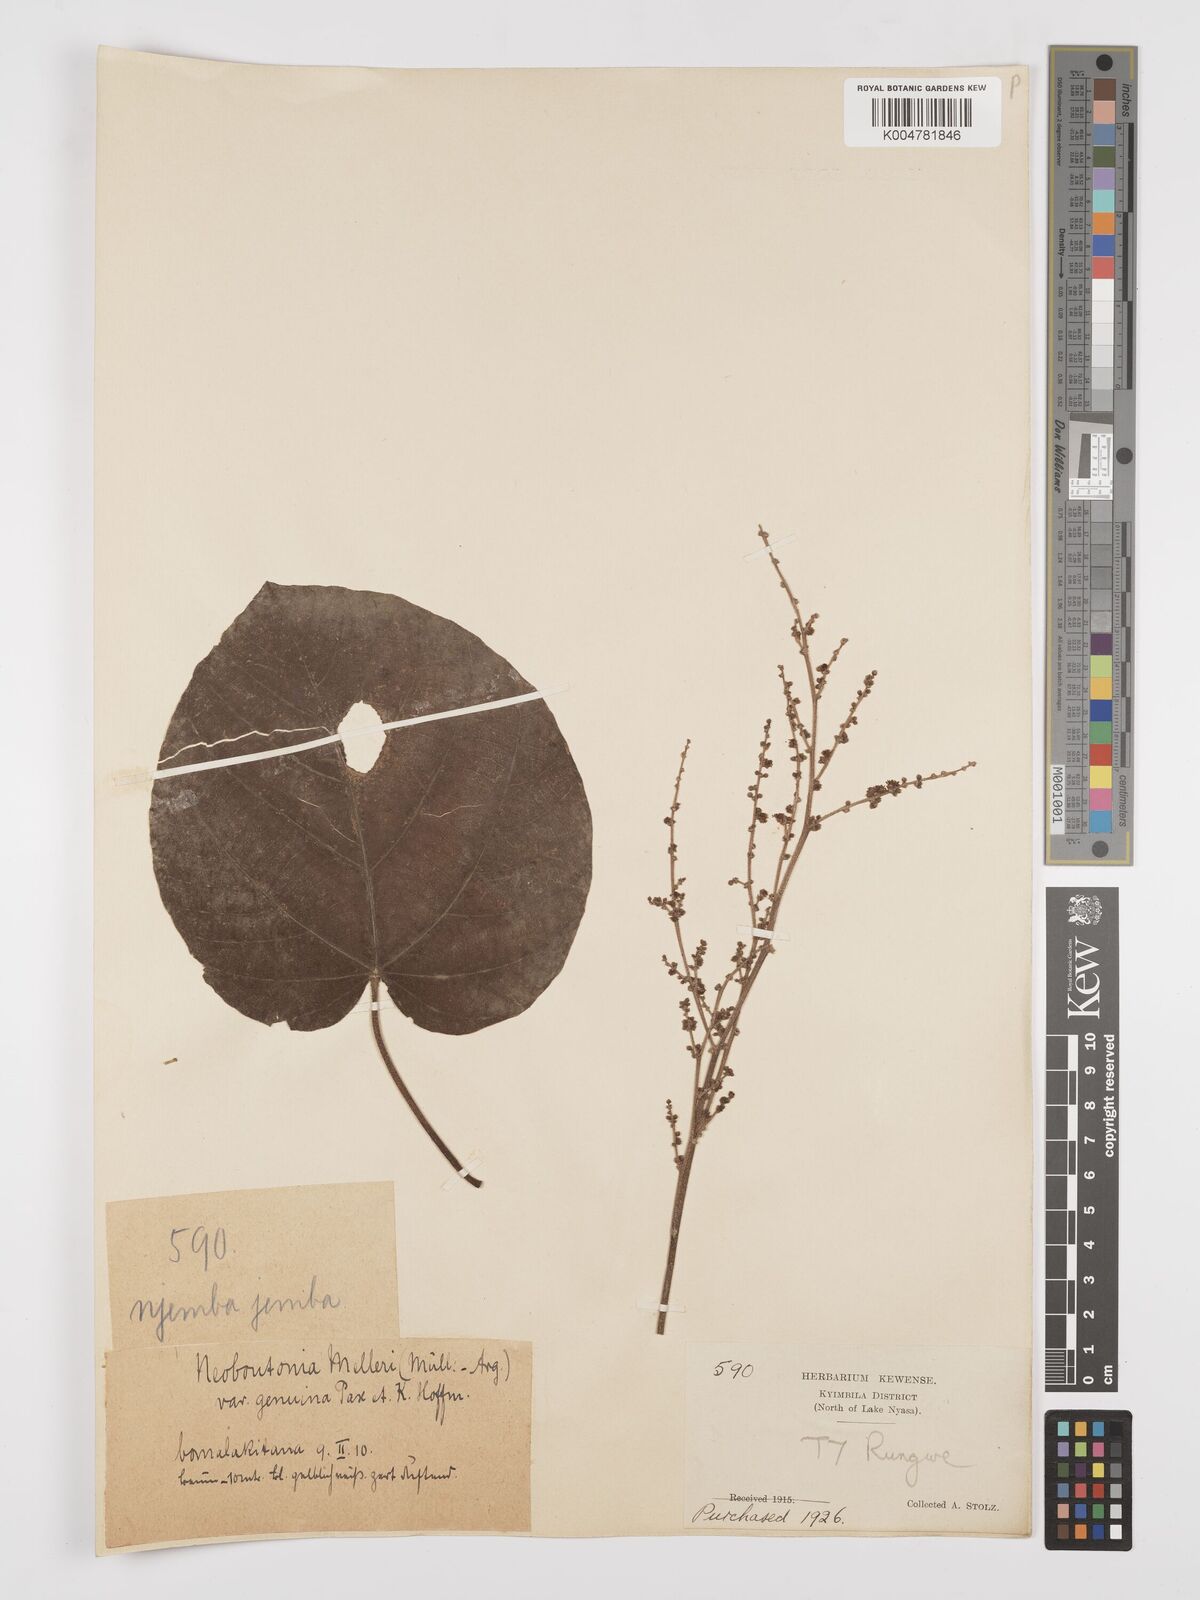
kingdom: Plantae
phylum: Tracheophyta
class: Magnoliopsida
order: Malpighiales
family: Euphorbiaceae
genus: Neoboutonia
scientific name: Neoboutonia melleri
